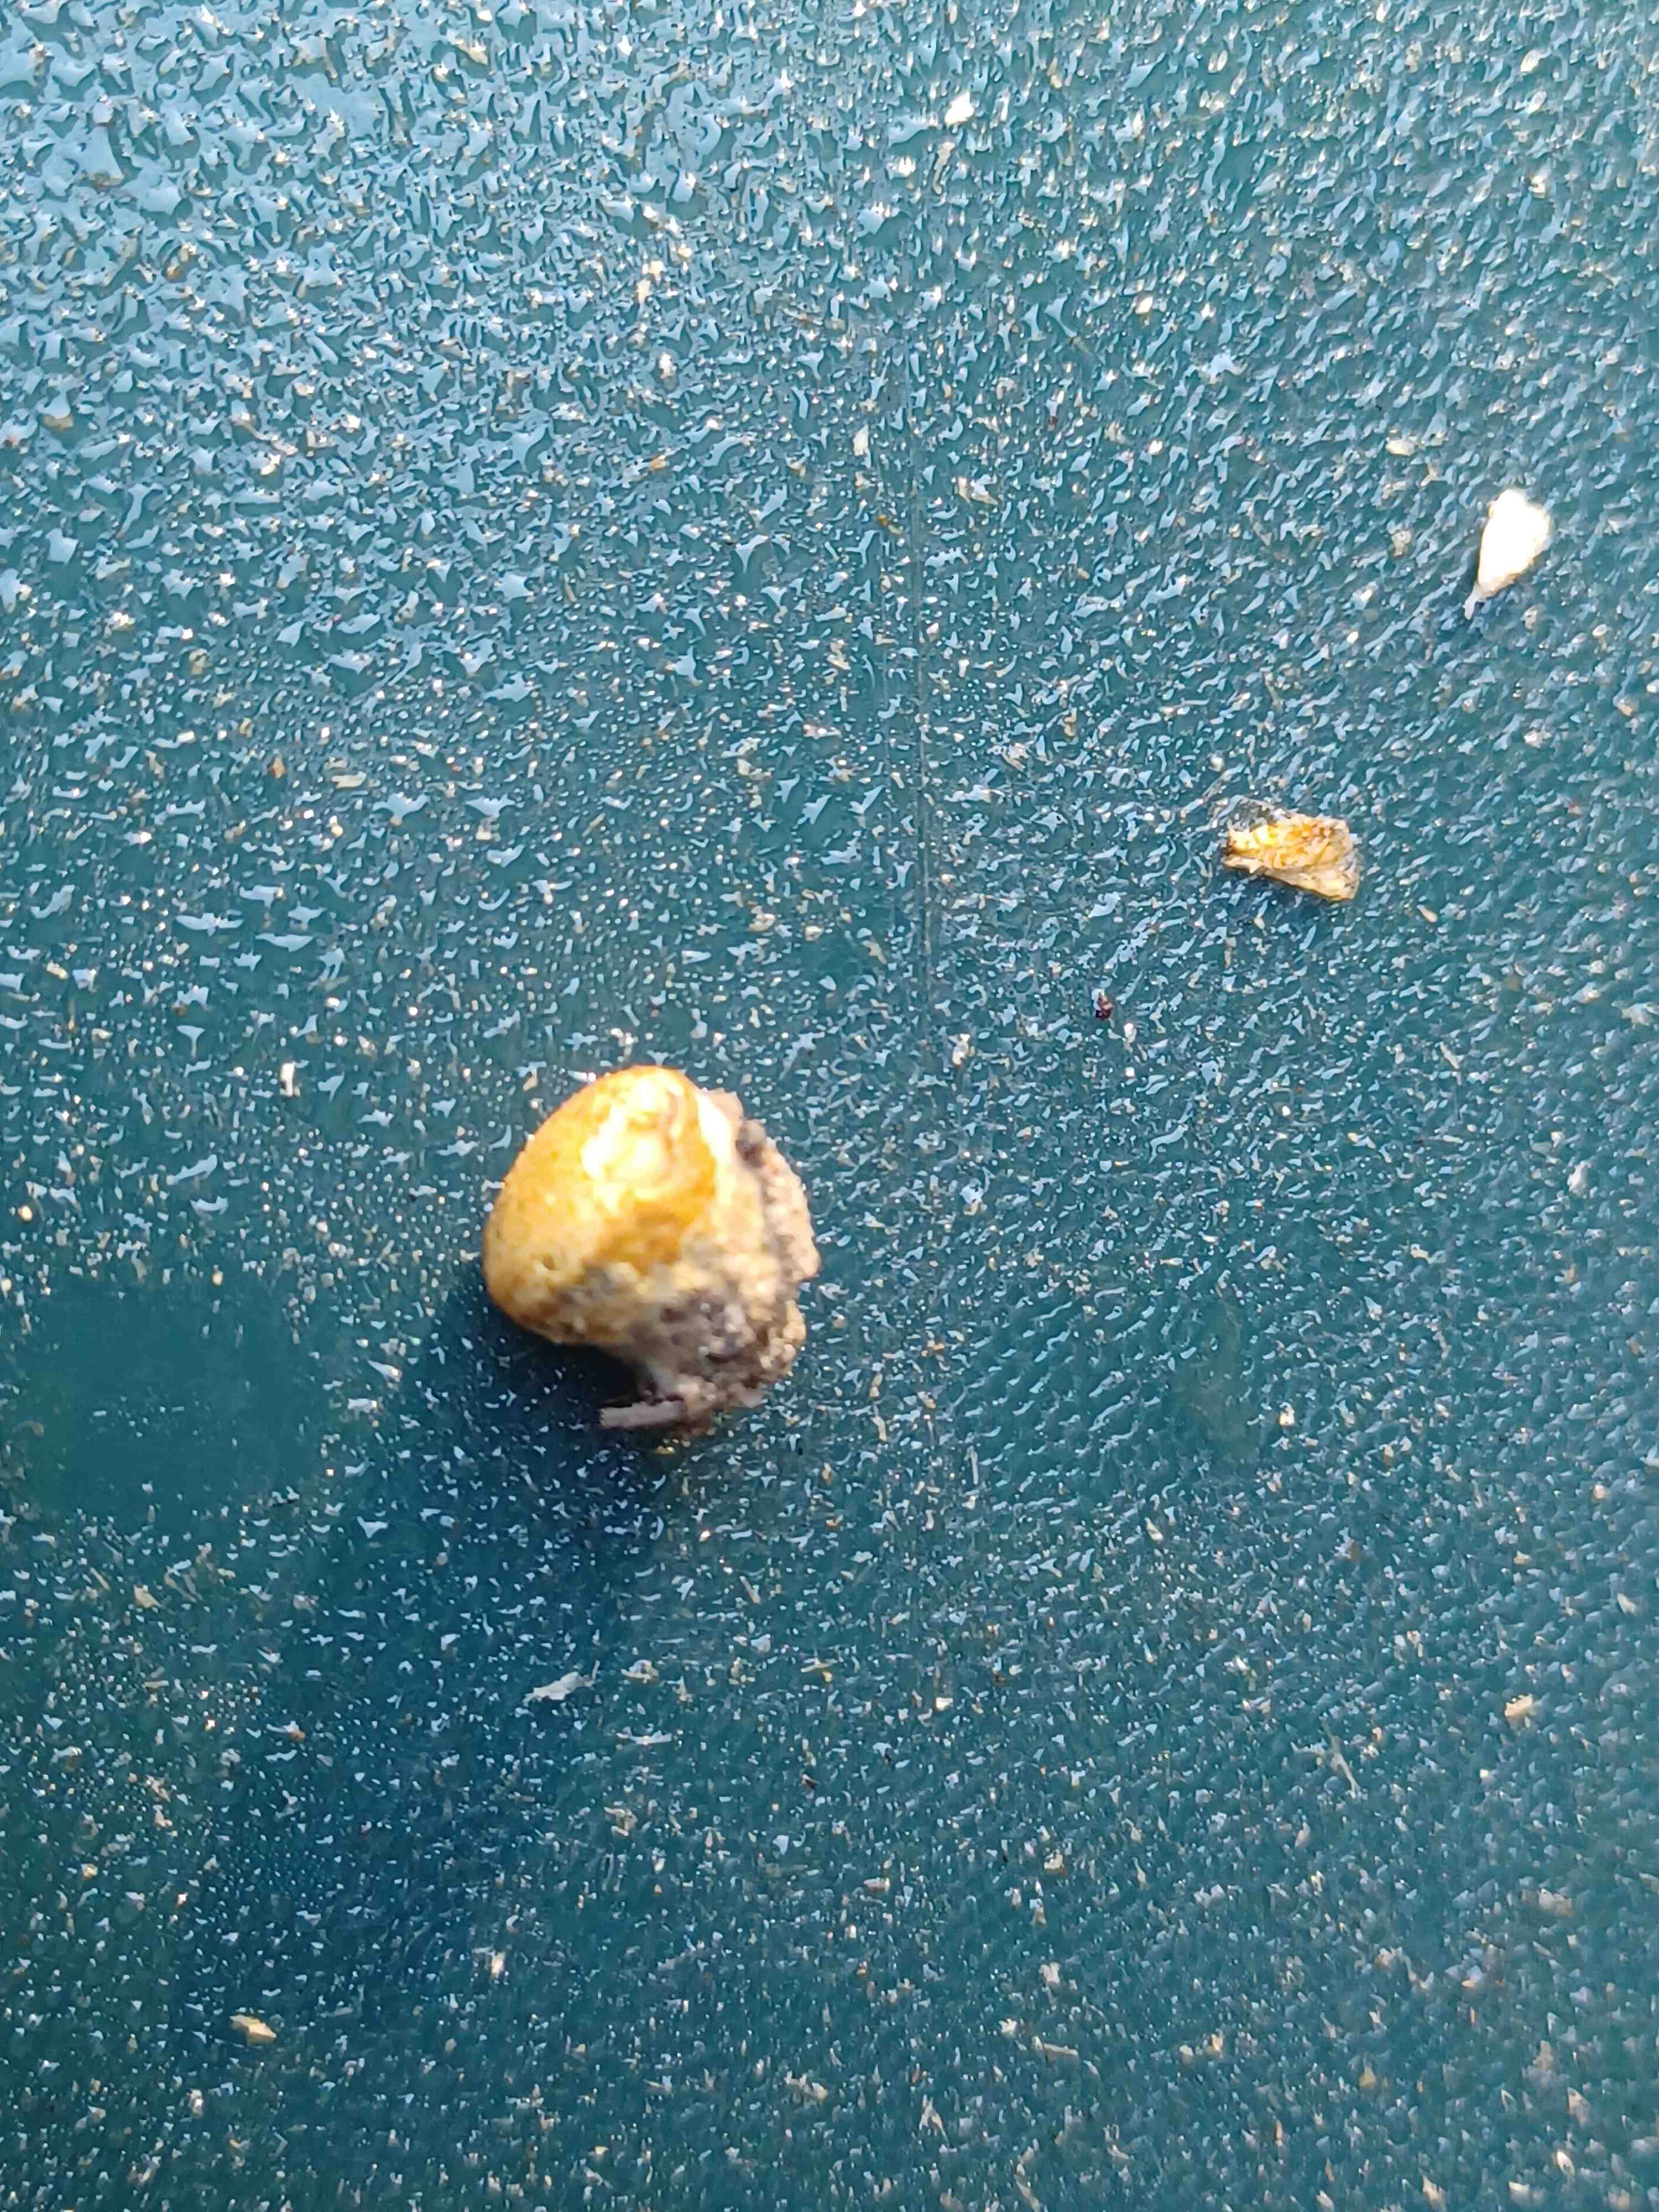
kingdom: Fungi
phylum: Basidiomycota
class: Agaricomycetes
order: Agaricales
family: Nidulariaceae
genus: Crucibulum
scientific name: Crucibulum crucibuliforme
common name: krukkesvamp
